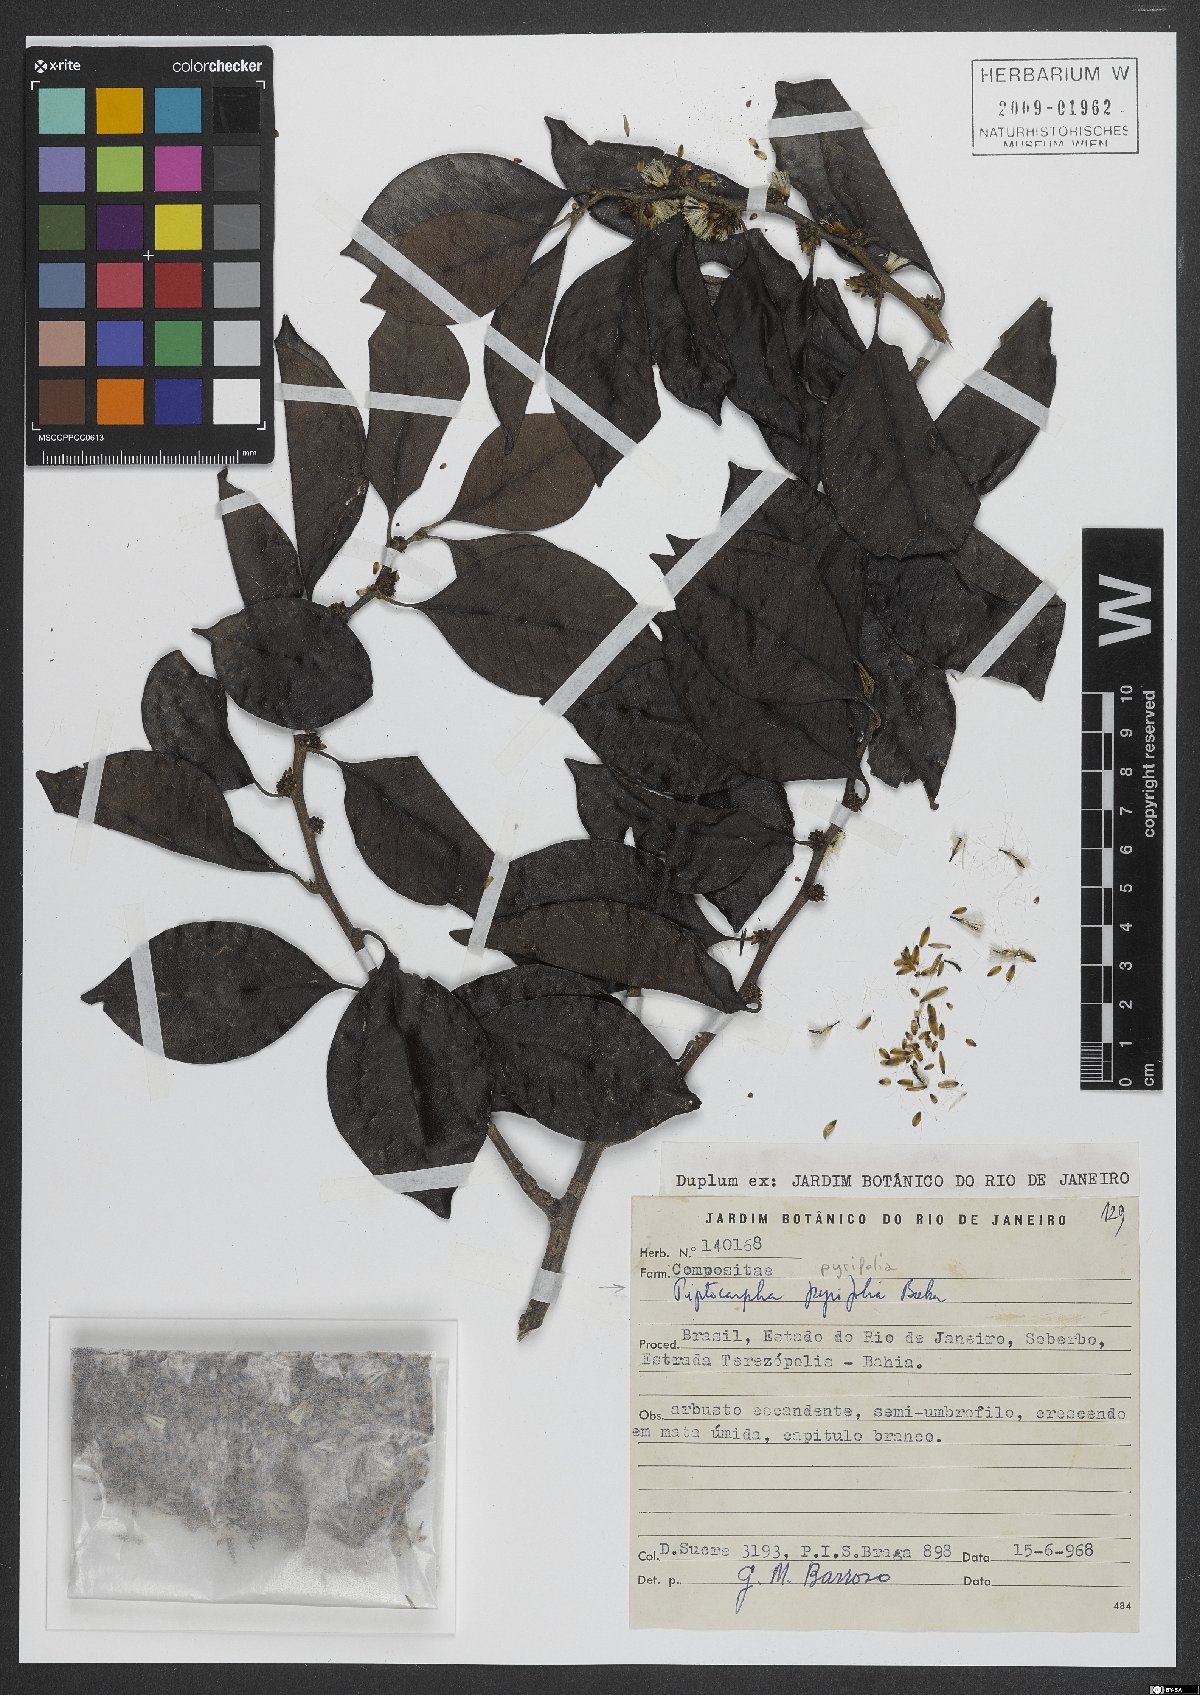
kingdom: Plantae
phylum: Tracheophyta
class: Magnoliopsida
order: Asterales
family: Asteraceae
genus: Piptocarpha
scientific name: Piptocarpha pyrifolia
